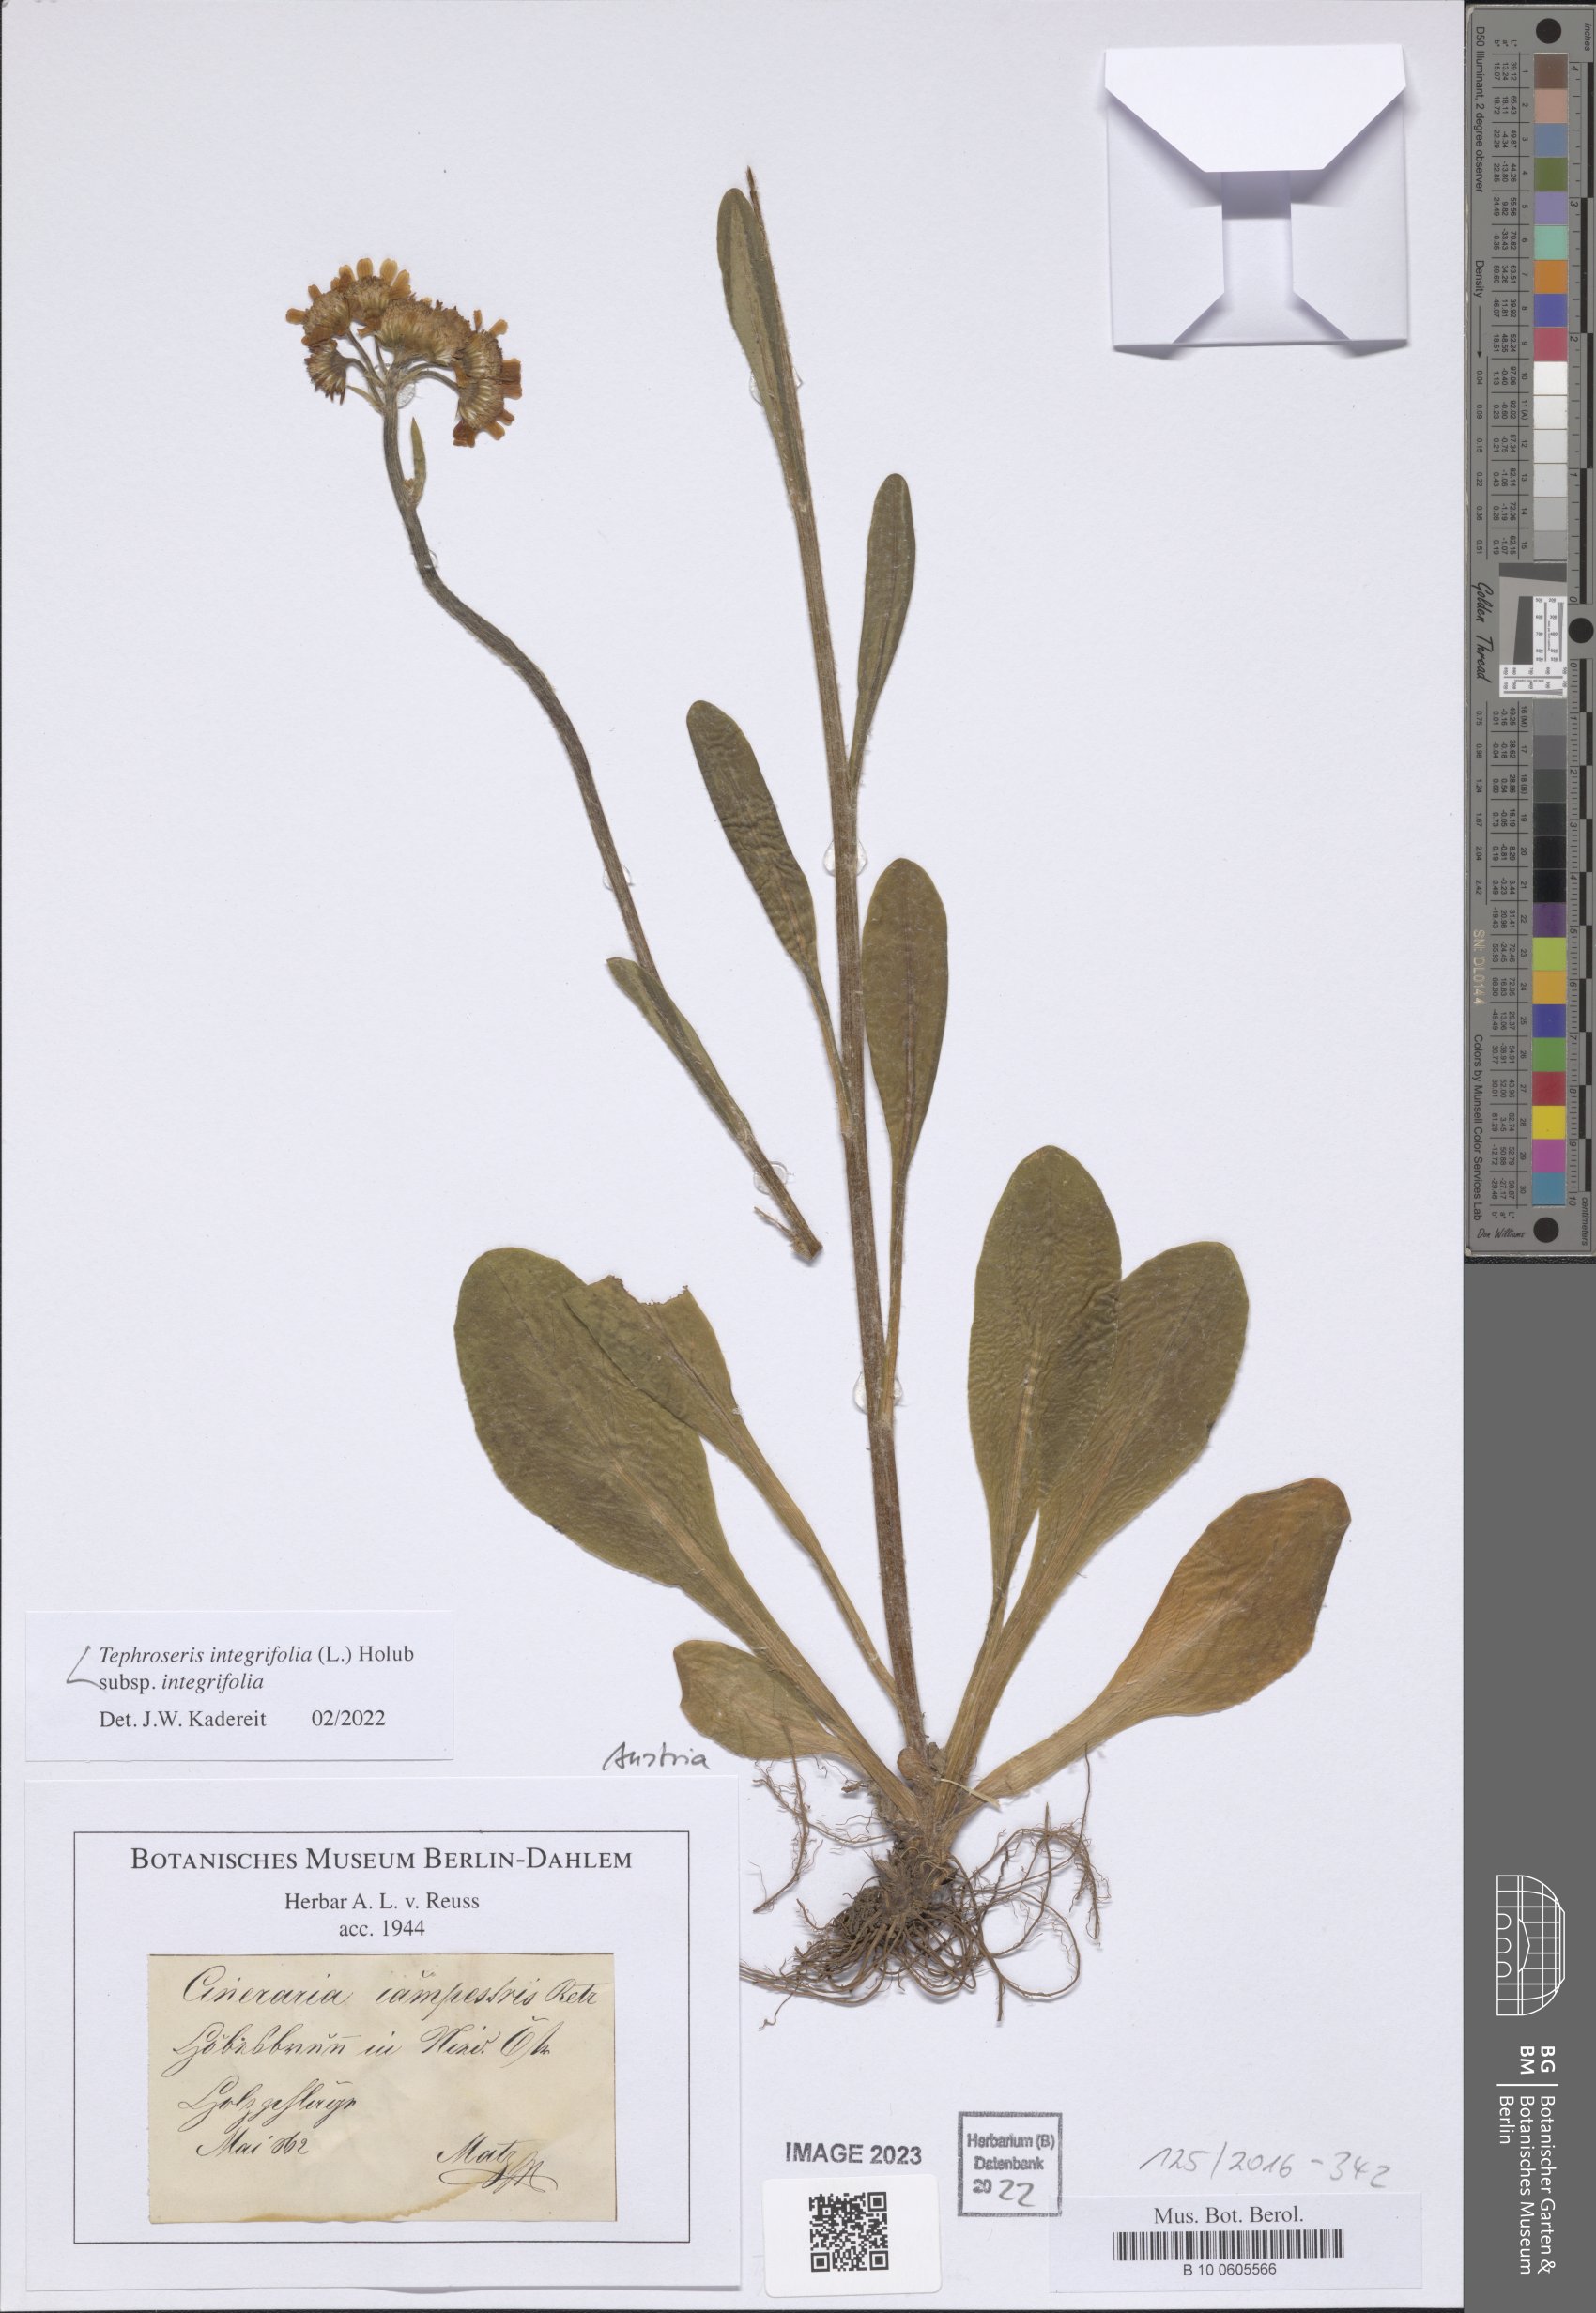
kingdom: Plantae
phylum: Tracheophyta
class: Magnoliopsida
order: Asterales
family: Asteraceae
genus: Tephroseris
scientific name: Tephroseris integrifolia
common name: Field fleawort
